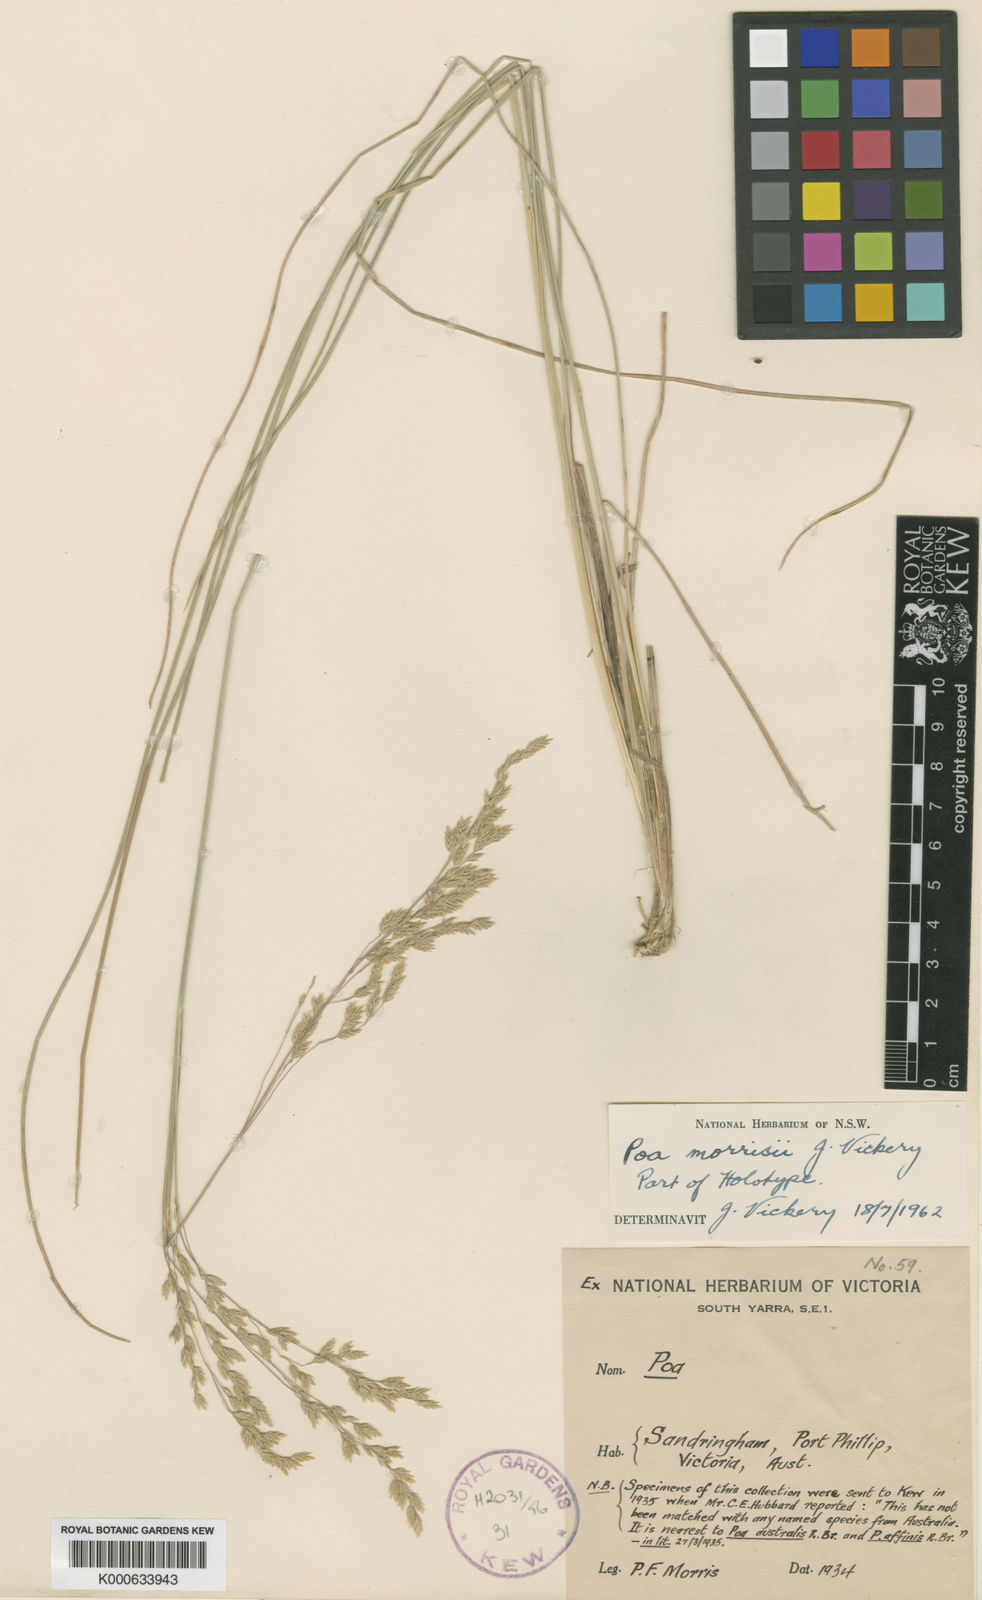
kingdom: Plantae
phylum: Tracheophyta
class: Liliopsida
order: Poales
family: Poaceae
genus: Poa
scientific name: Poa morrisii
